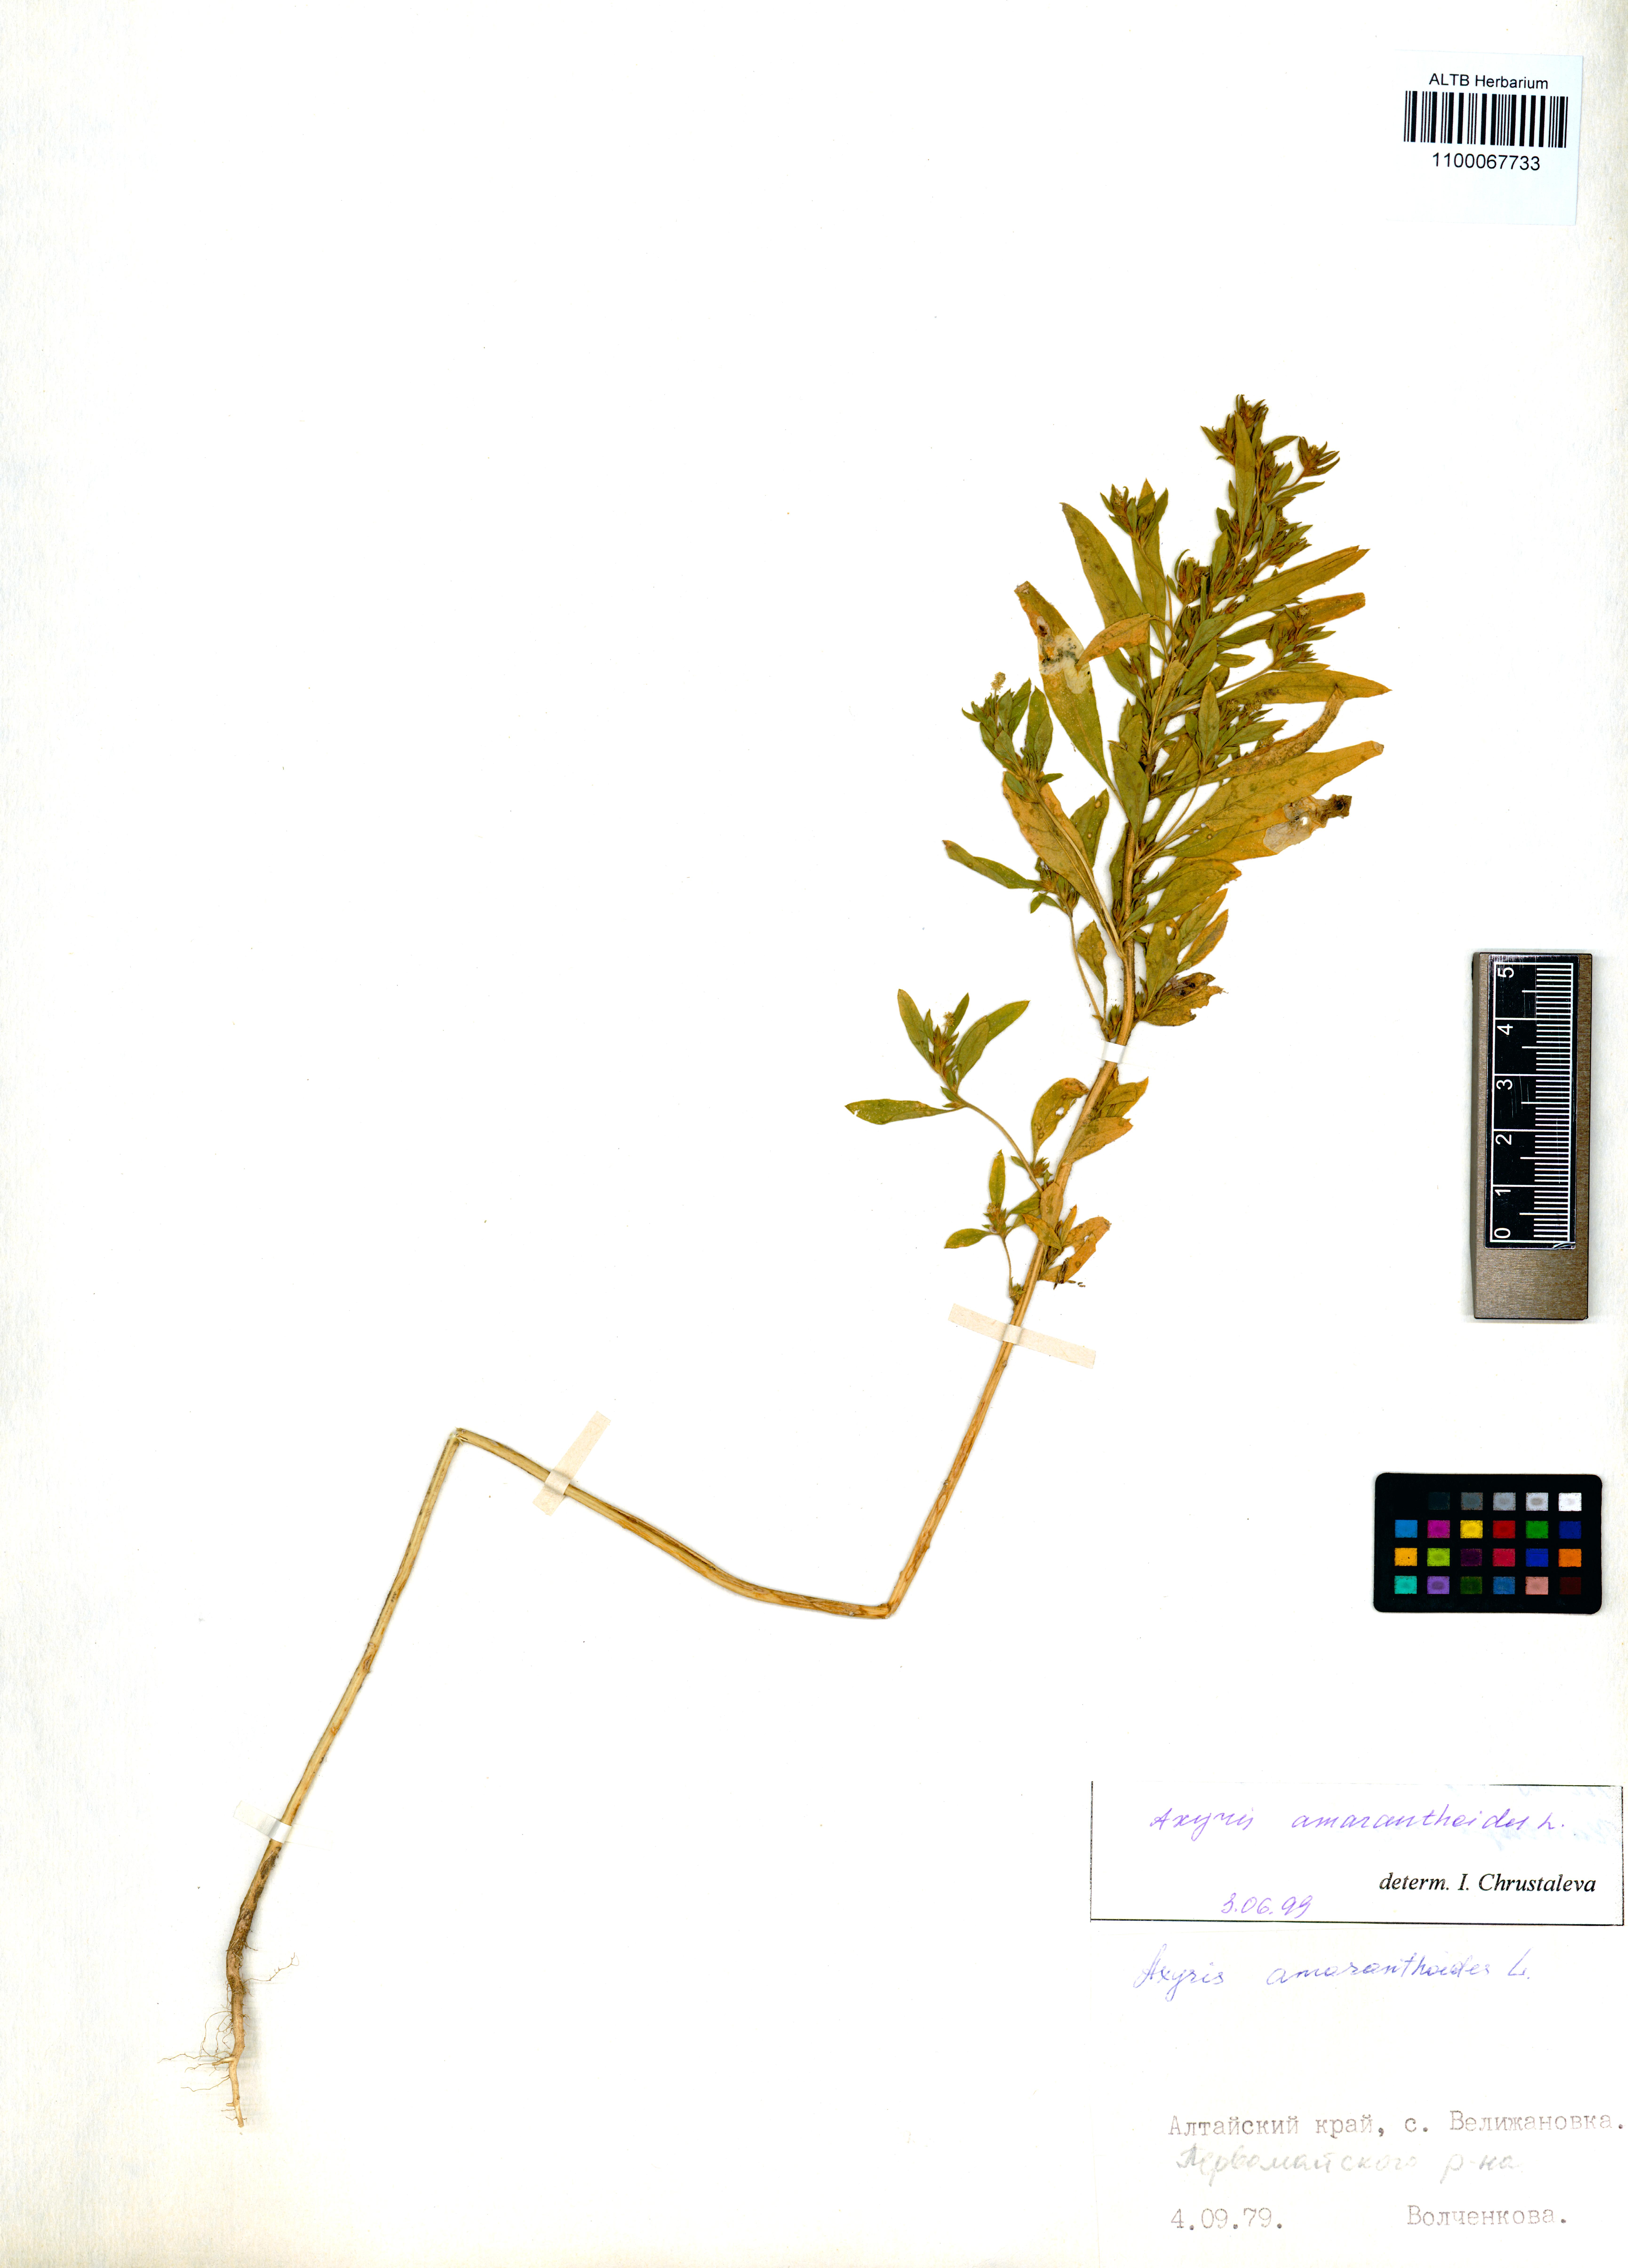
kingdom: Plantae
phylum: Tracheophyta
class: Magnoliopsida
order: Caryophyllales
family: Amaranthaceae
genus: Axyris
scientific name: Axyris amaranthoides
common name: Russian pigweed
